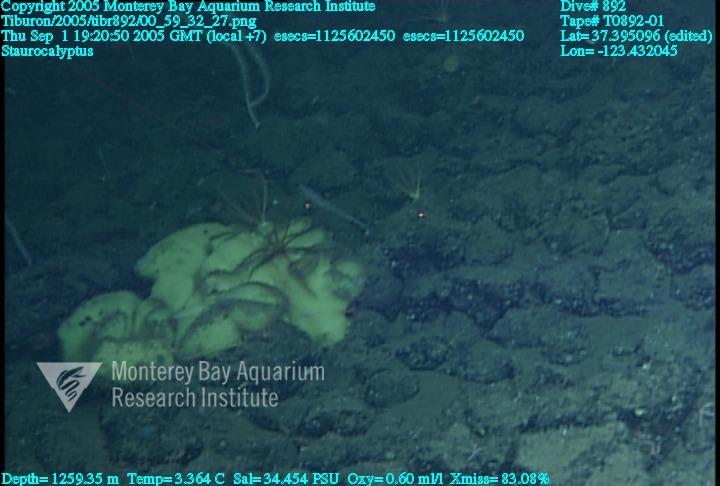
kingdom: Animalia
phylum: Porifera
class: Hexactinellida
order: Lyssacinosida
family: Rossellidae
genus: Staurocalyptus
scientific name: Staurocalyptus
